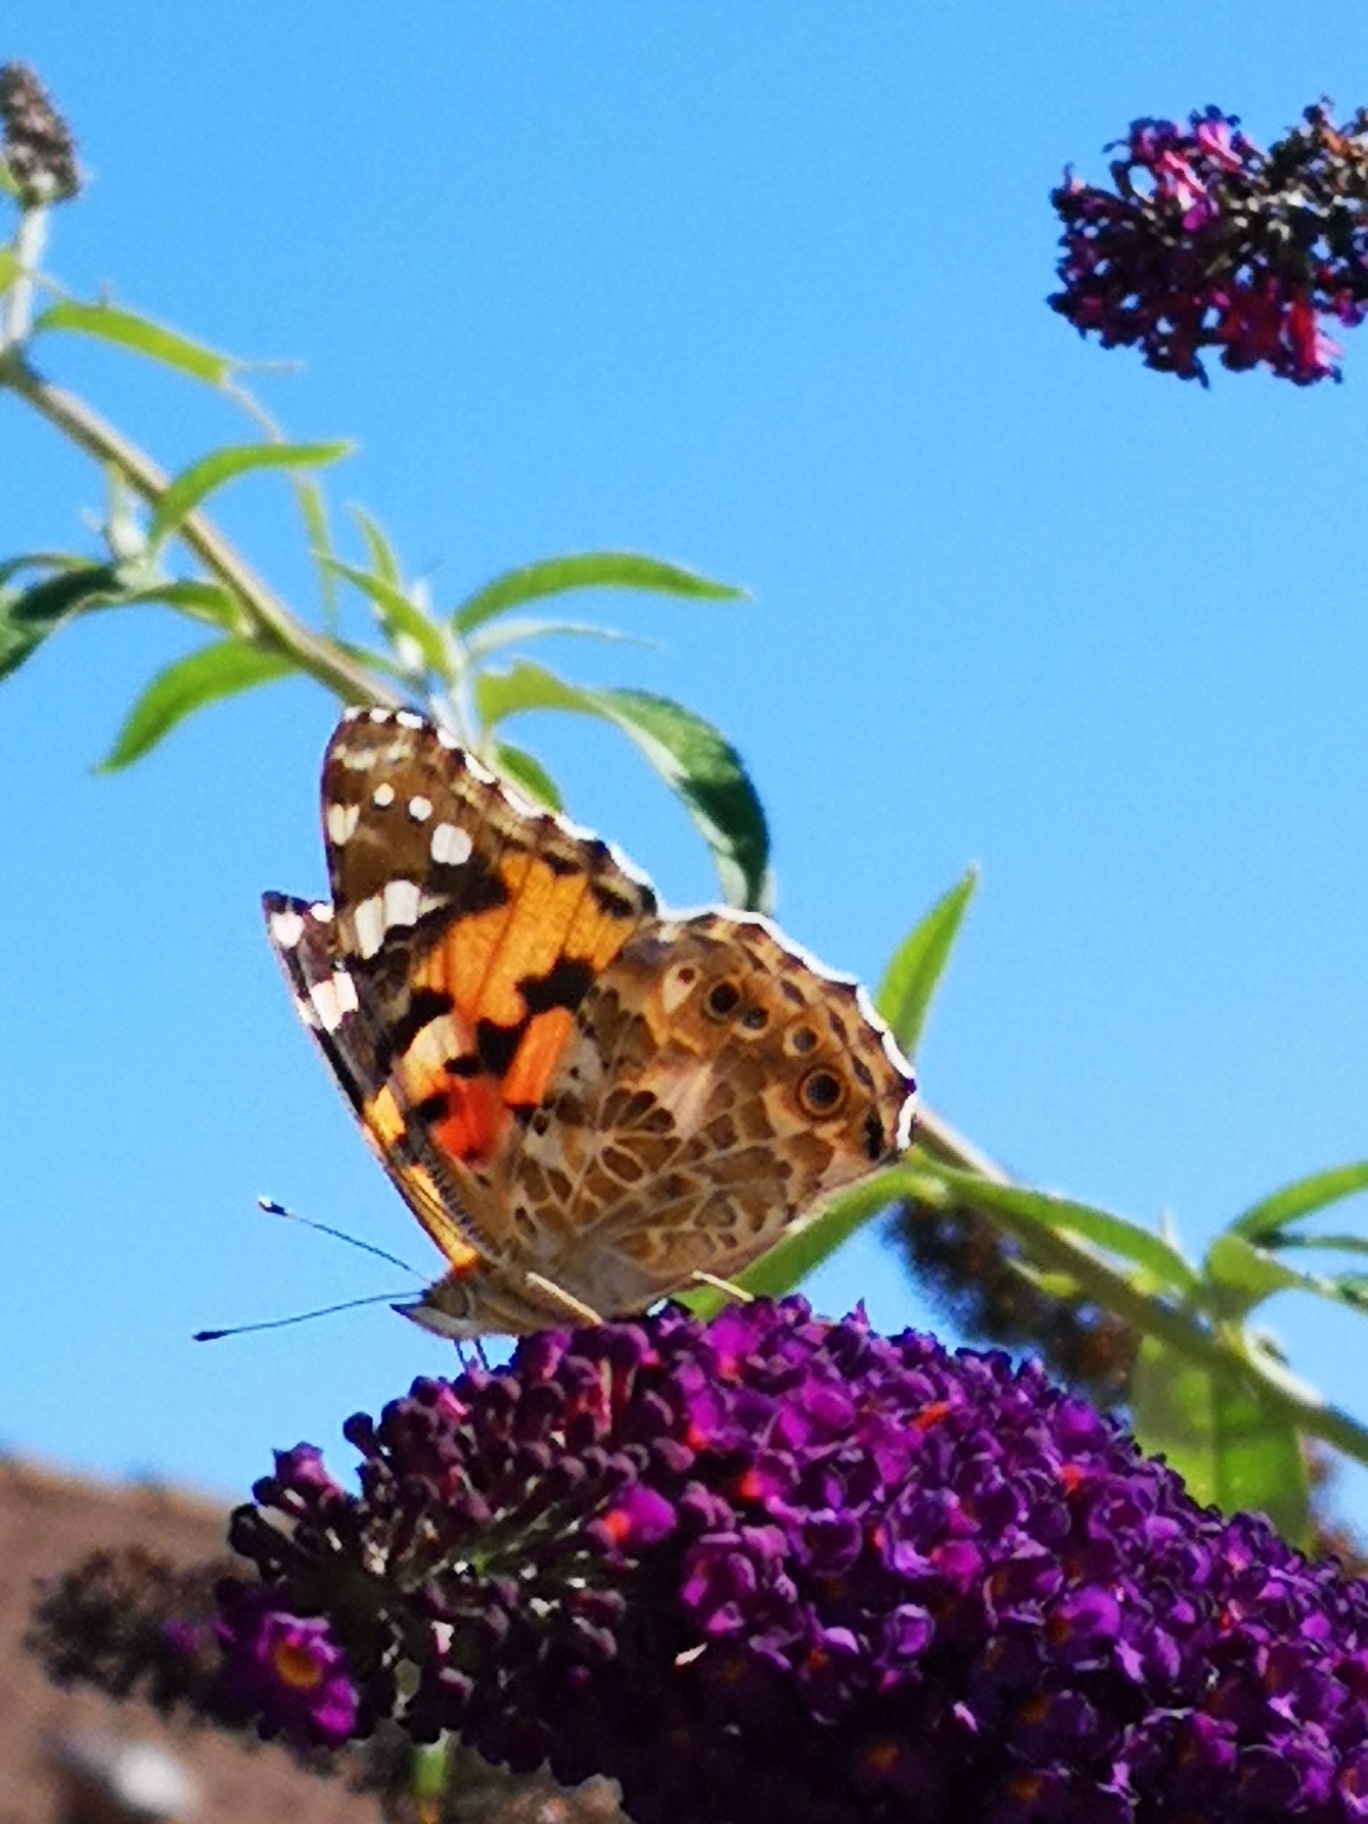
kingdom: Animalia
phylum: Arthropoda
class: Insecta
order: Lepidoptera
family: Nymphalidae
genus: Vanessa
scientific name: Vanessa cardui
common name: Tidselsommerfugl
